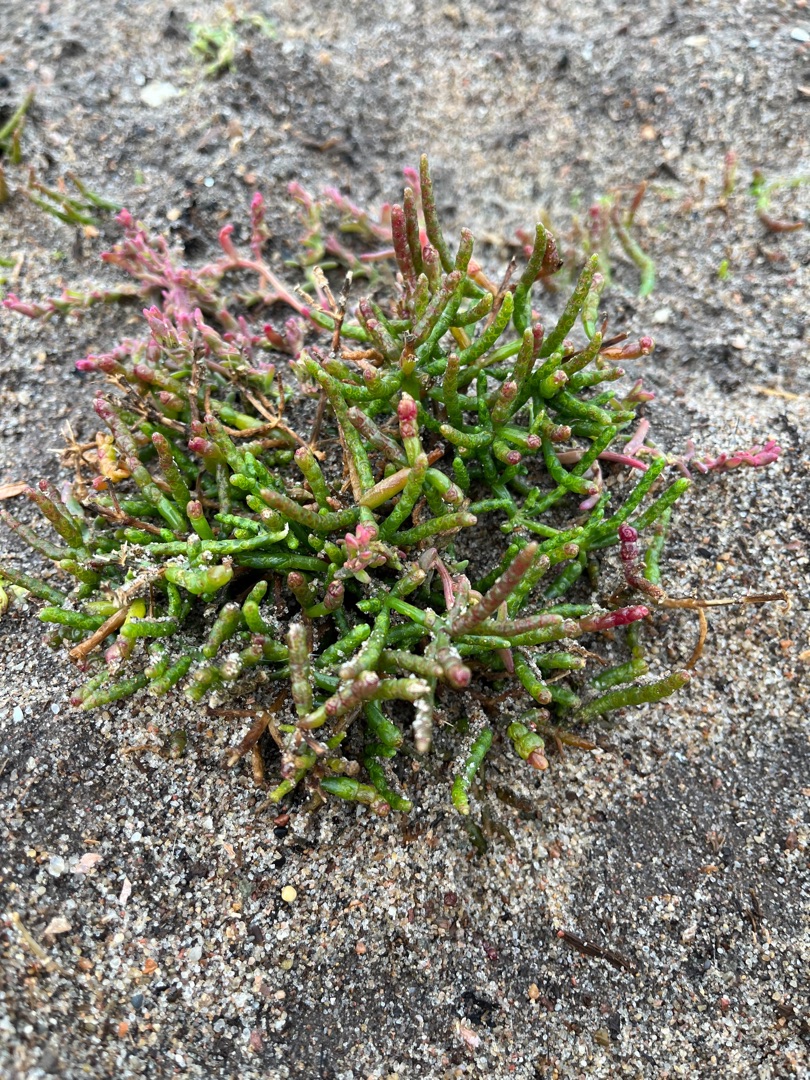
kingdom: Plantae
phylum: Tracheophyta
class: Magnoliopsida
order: Caryophyllales
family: Amaranthaceae
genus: Salicornia
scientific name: Salicornia europaea
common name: Almindelig salturt
